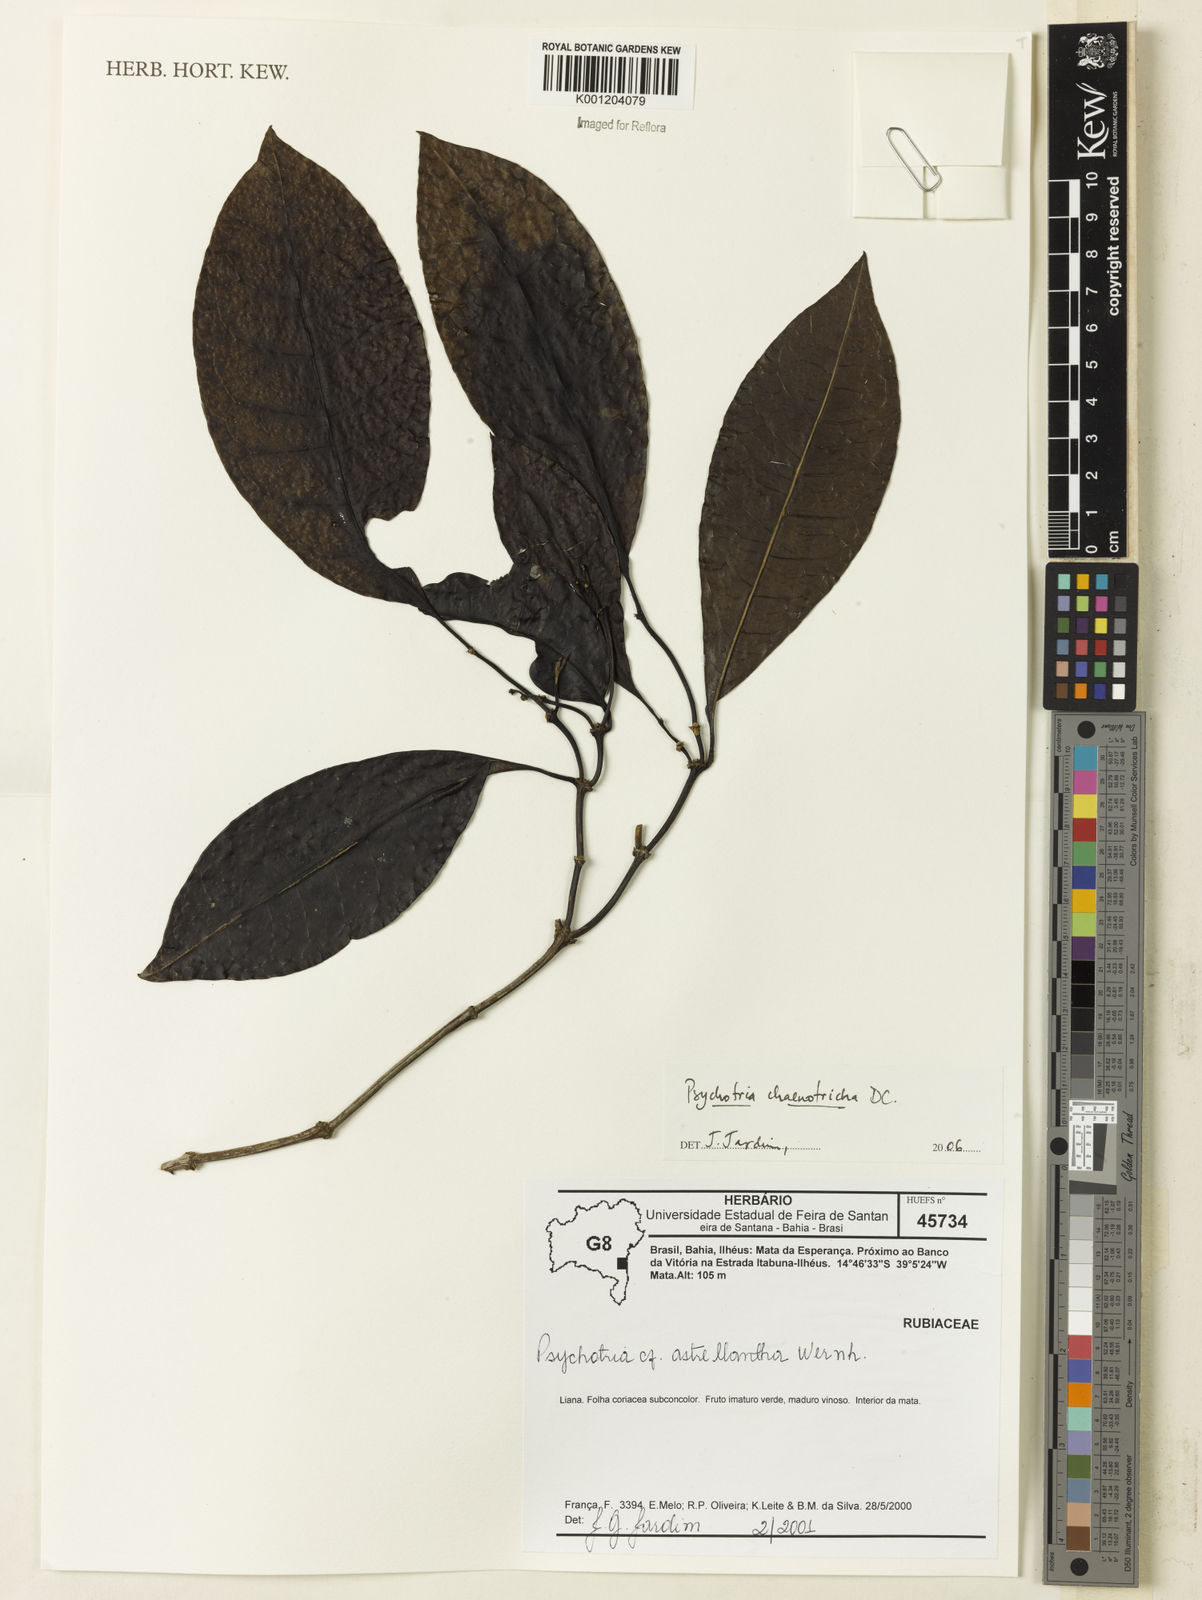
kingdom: Plantae
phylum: Tracheophyta
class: Magnoliopsida
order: Gentianales
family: Rubiaceae
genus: Eumachia
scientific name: Eumachia chaenotricha
